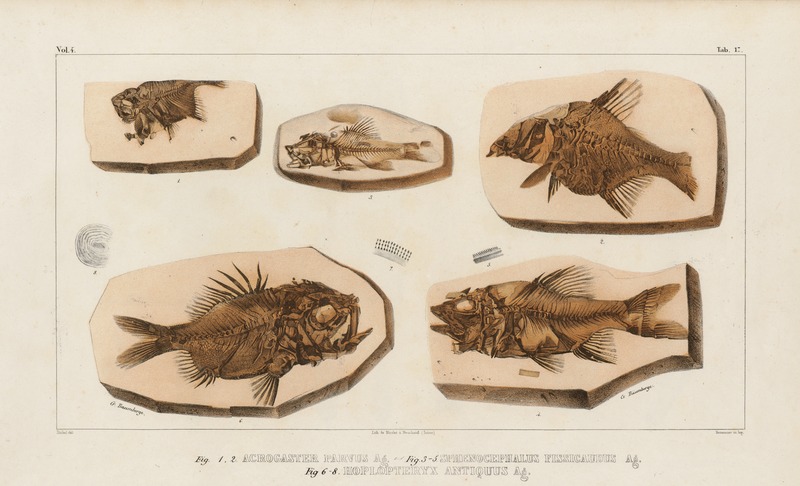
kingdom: Animalia
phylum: Chordata
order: Beryciformes
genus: Acrogaster
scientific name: Acrogaster parvus
